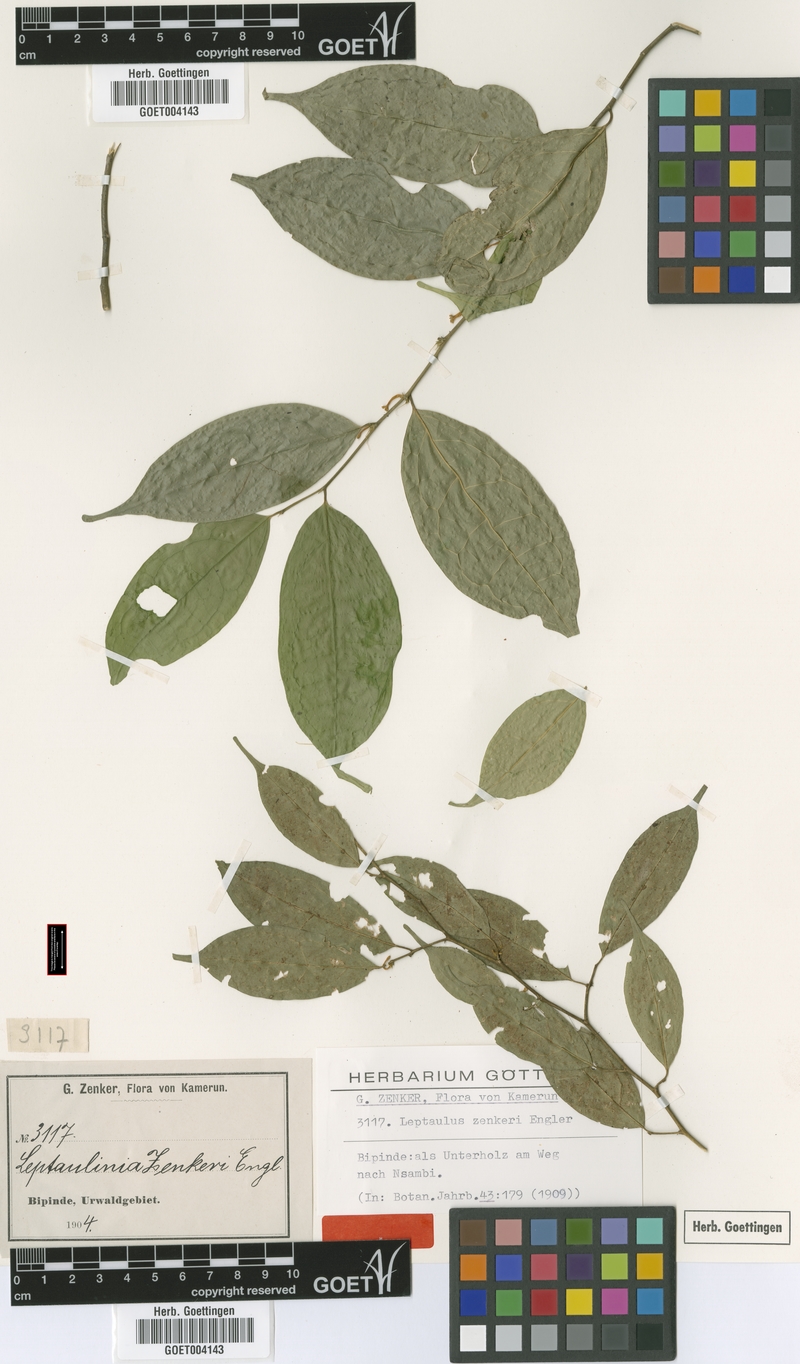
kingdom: Plantae
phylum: Tracheophyta
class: Magnoliopsida
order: Cardiopteridales
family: Cardiopteridaceae
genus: Leptaulus
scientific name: Leptaulus congolanus
